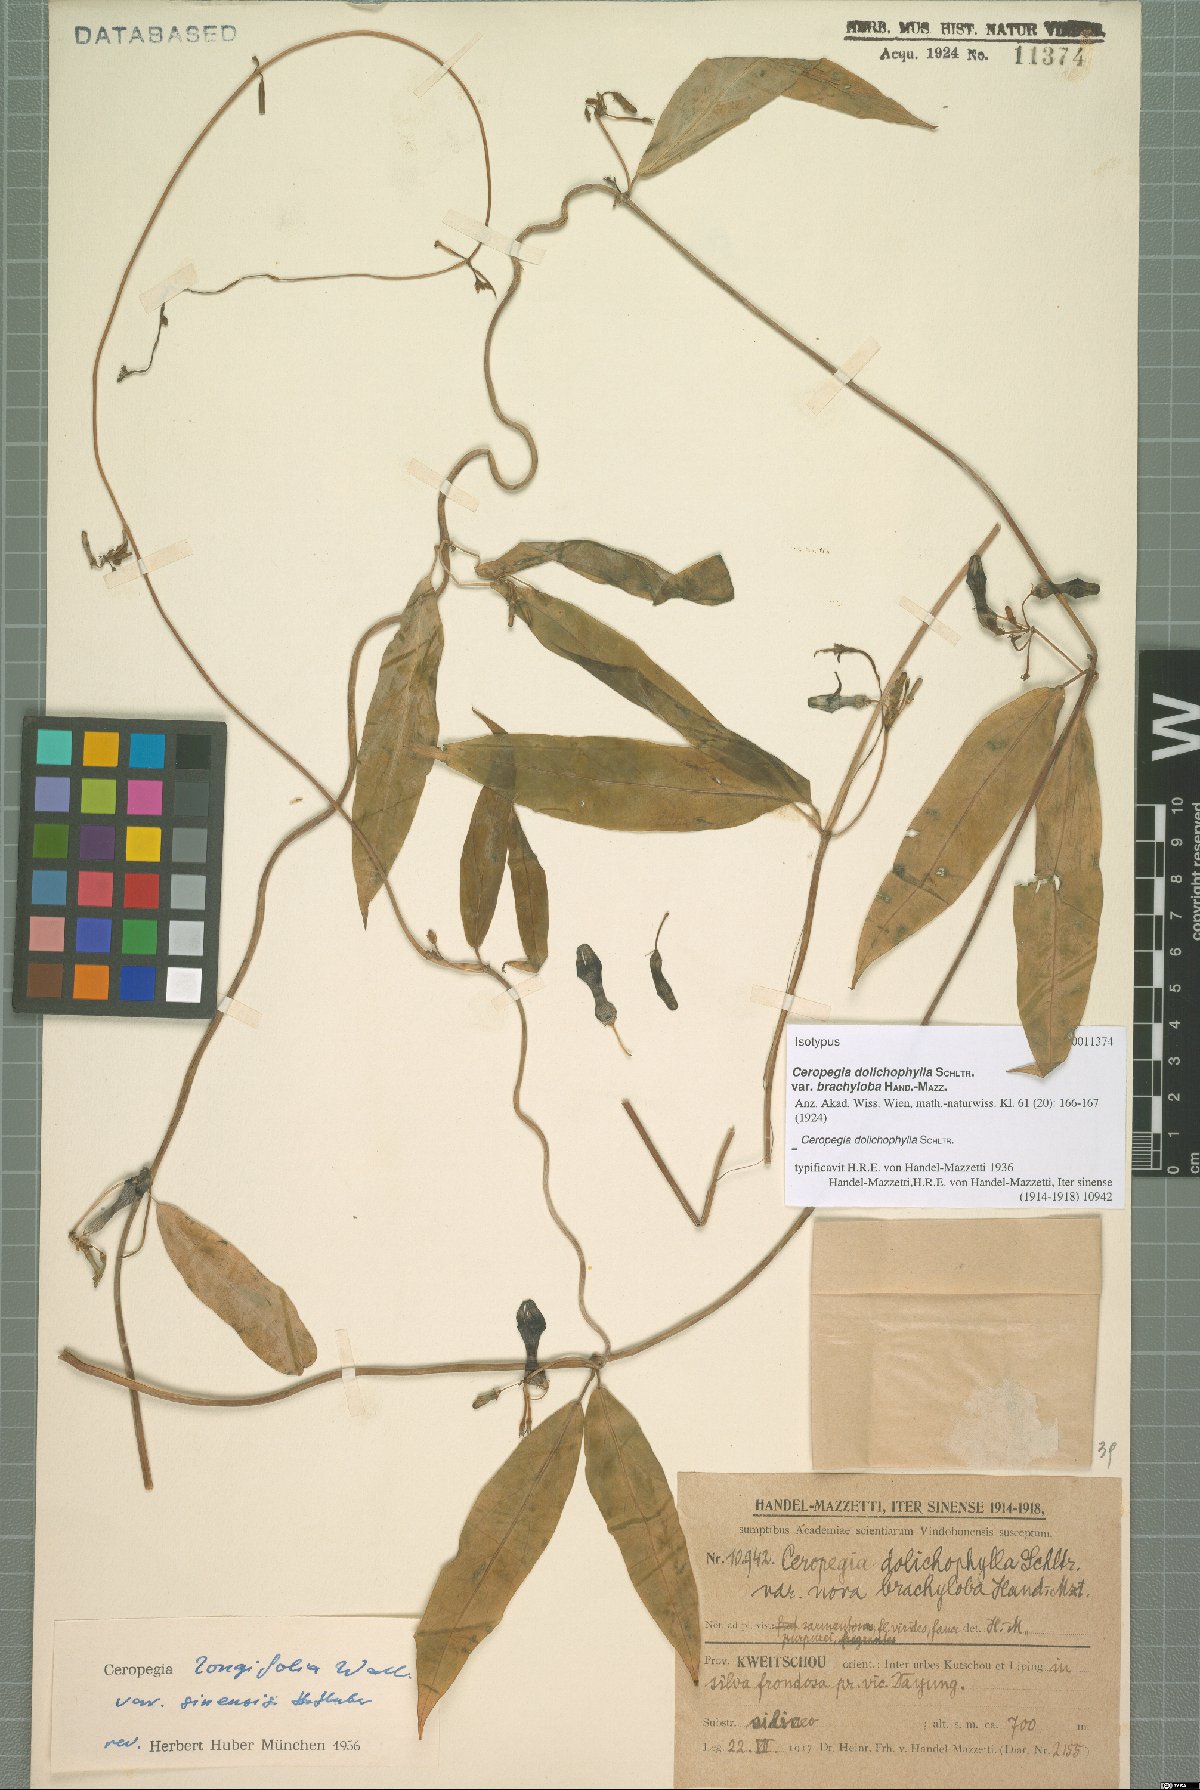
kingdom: Plantae
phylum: Tracheophyta
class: Magnoliopsida
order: Gentianales
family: Apocynaceae
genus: Ceropegia
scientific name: Ceropegia dolichophylla
